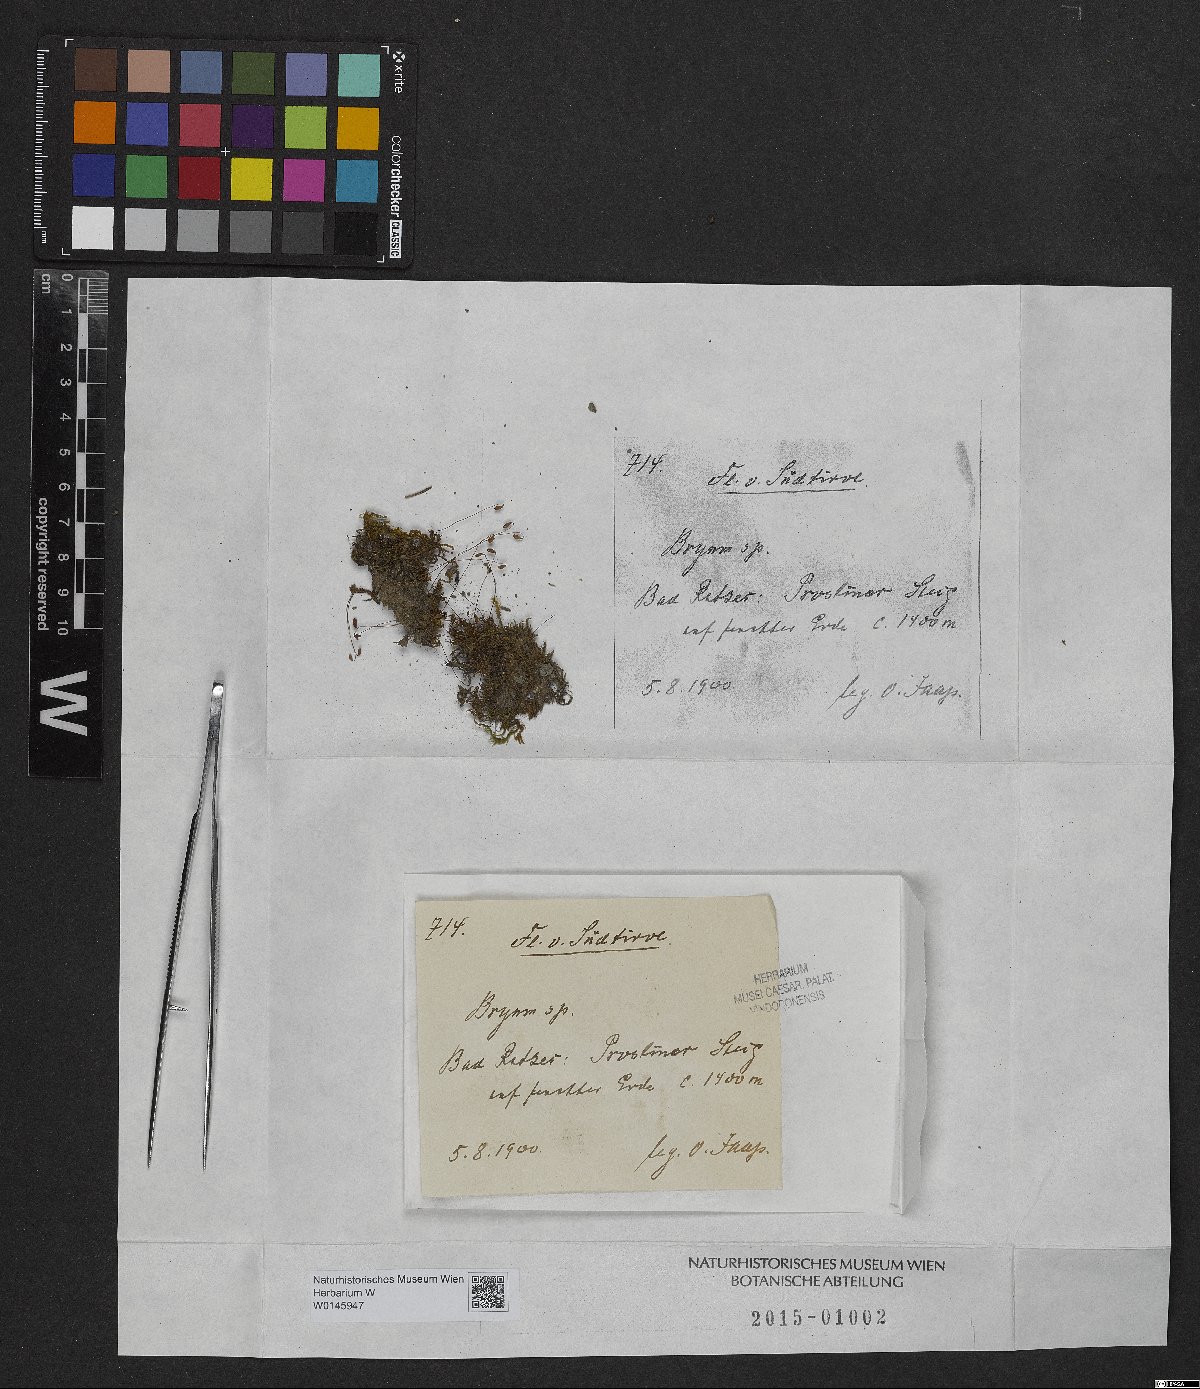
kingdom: Plantae
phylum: Bryophyta
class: Bryopsida
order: Bryales
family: Bryaceae
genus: Bryum
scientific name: Bryum
